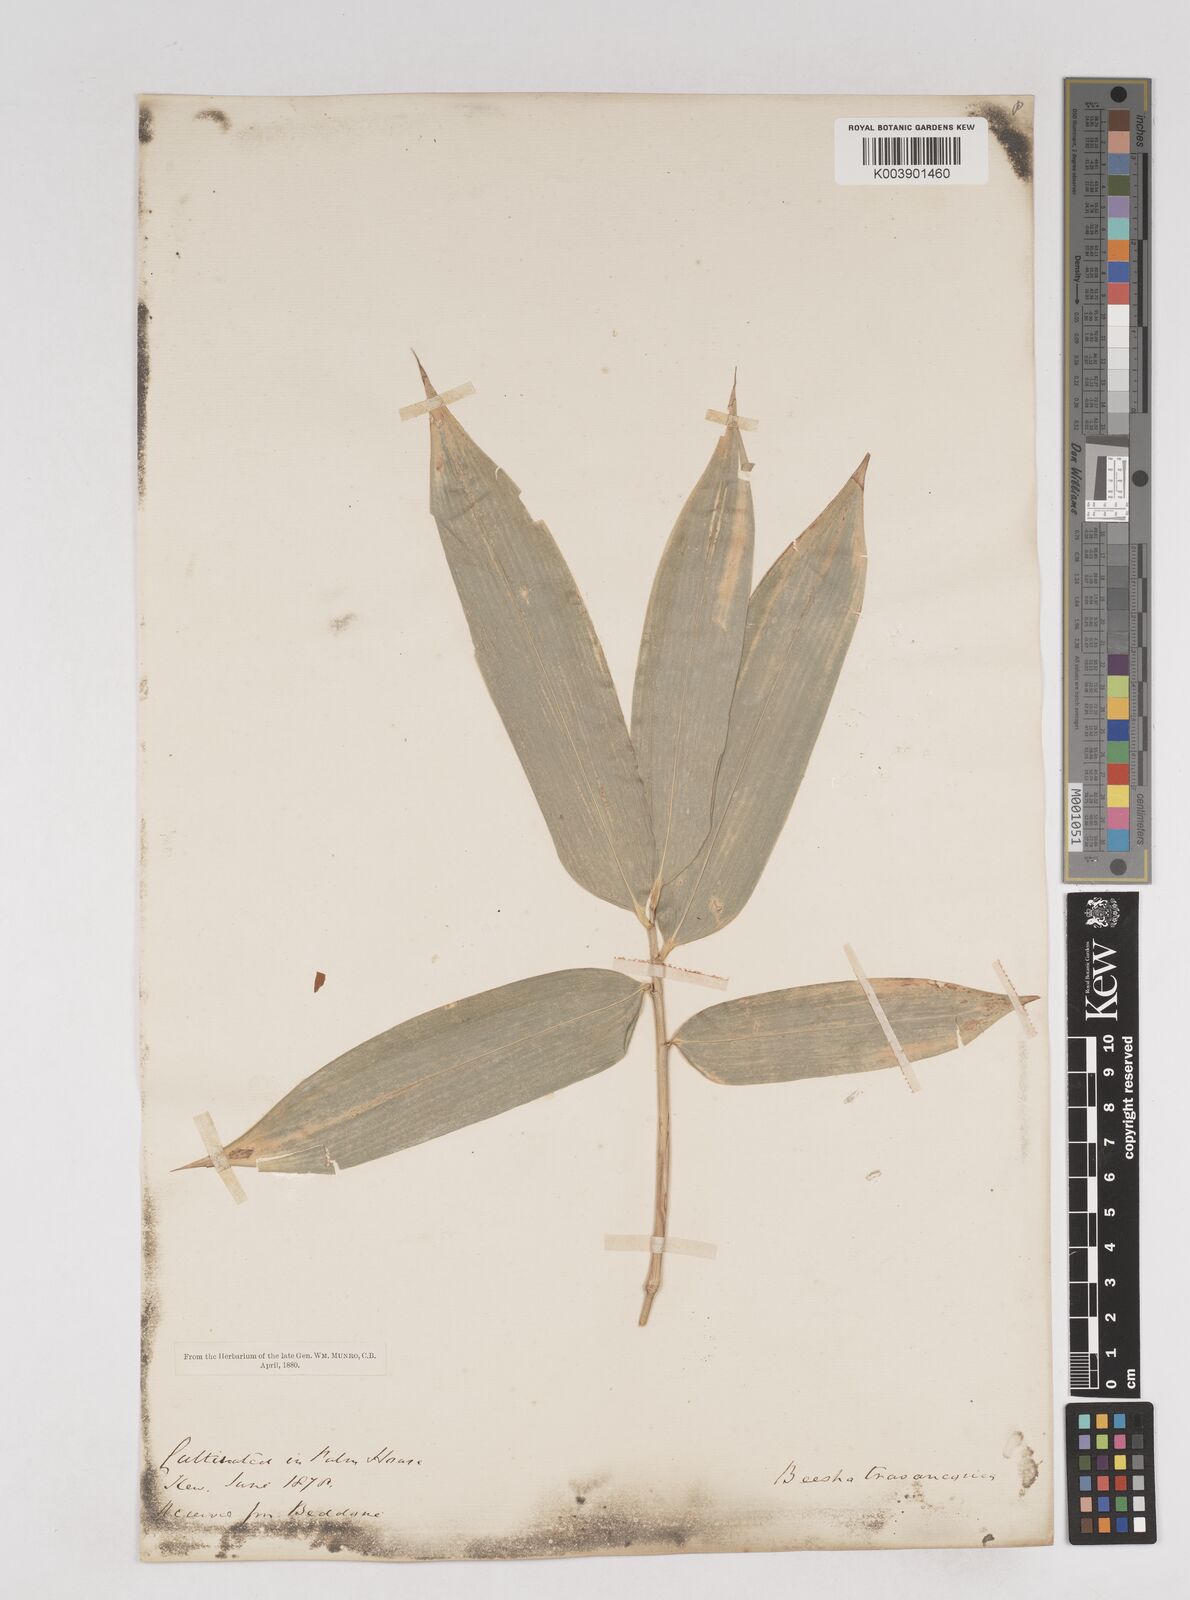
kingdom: Plantae
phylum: Tracheophyta
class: Liliopsida
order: Poales
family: Poaceae
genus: Ochlandra
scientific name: Ochlandra travancorica
